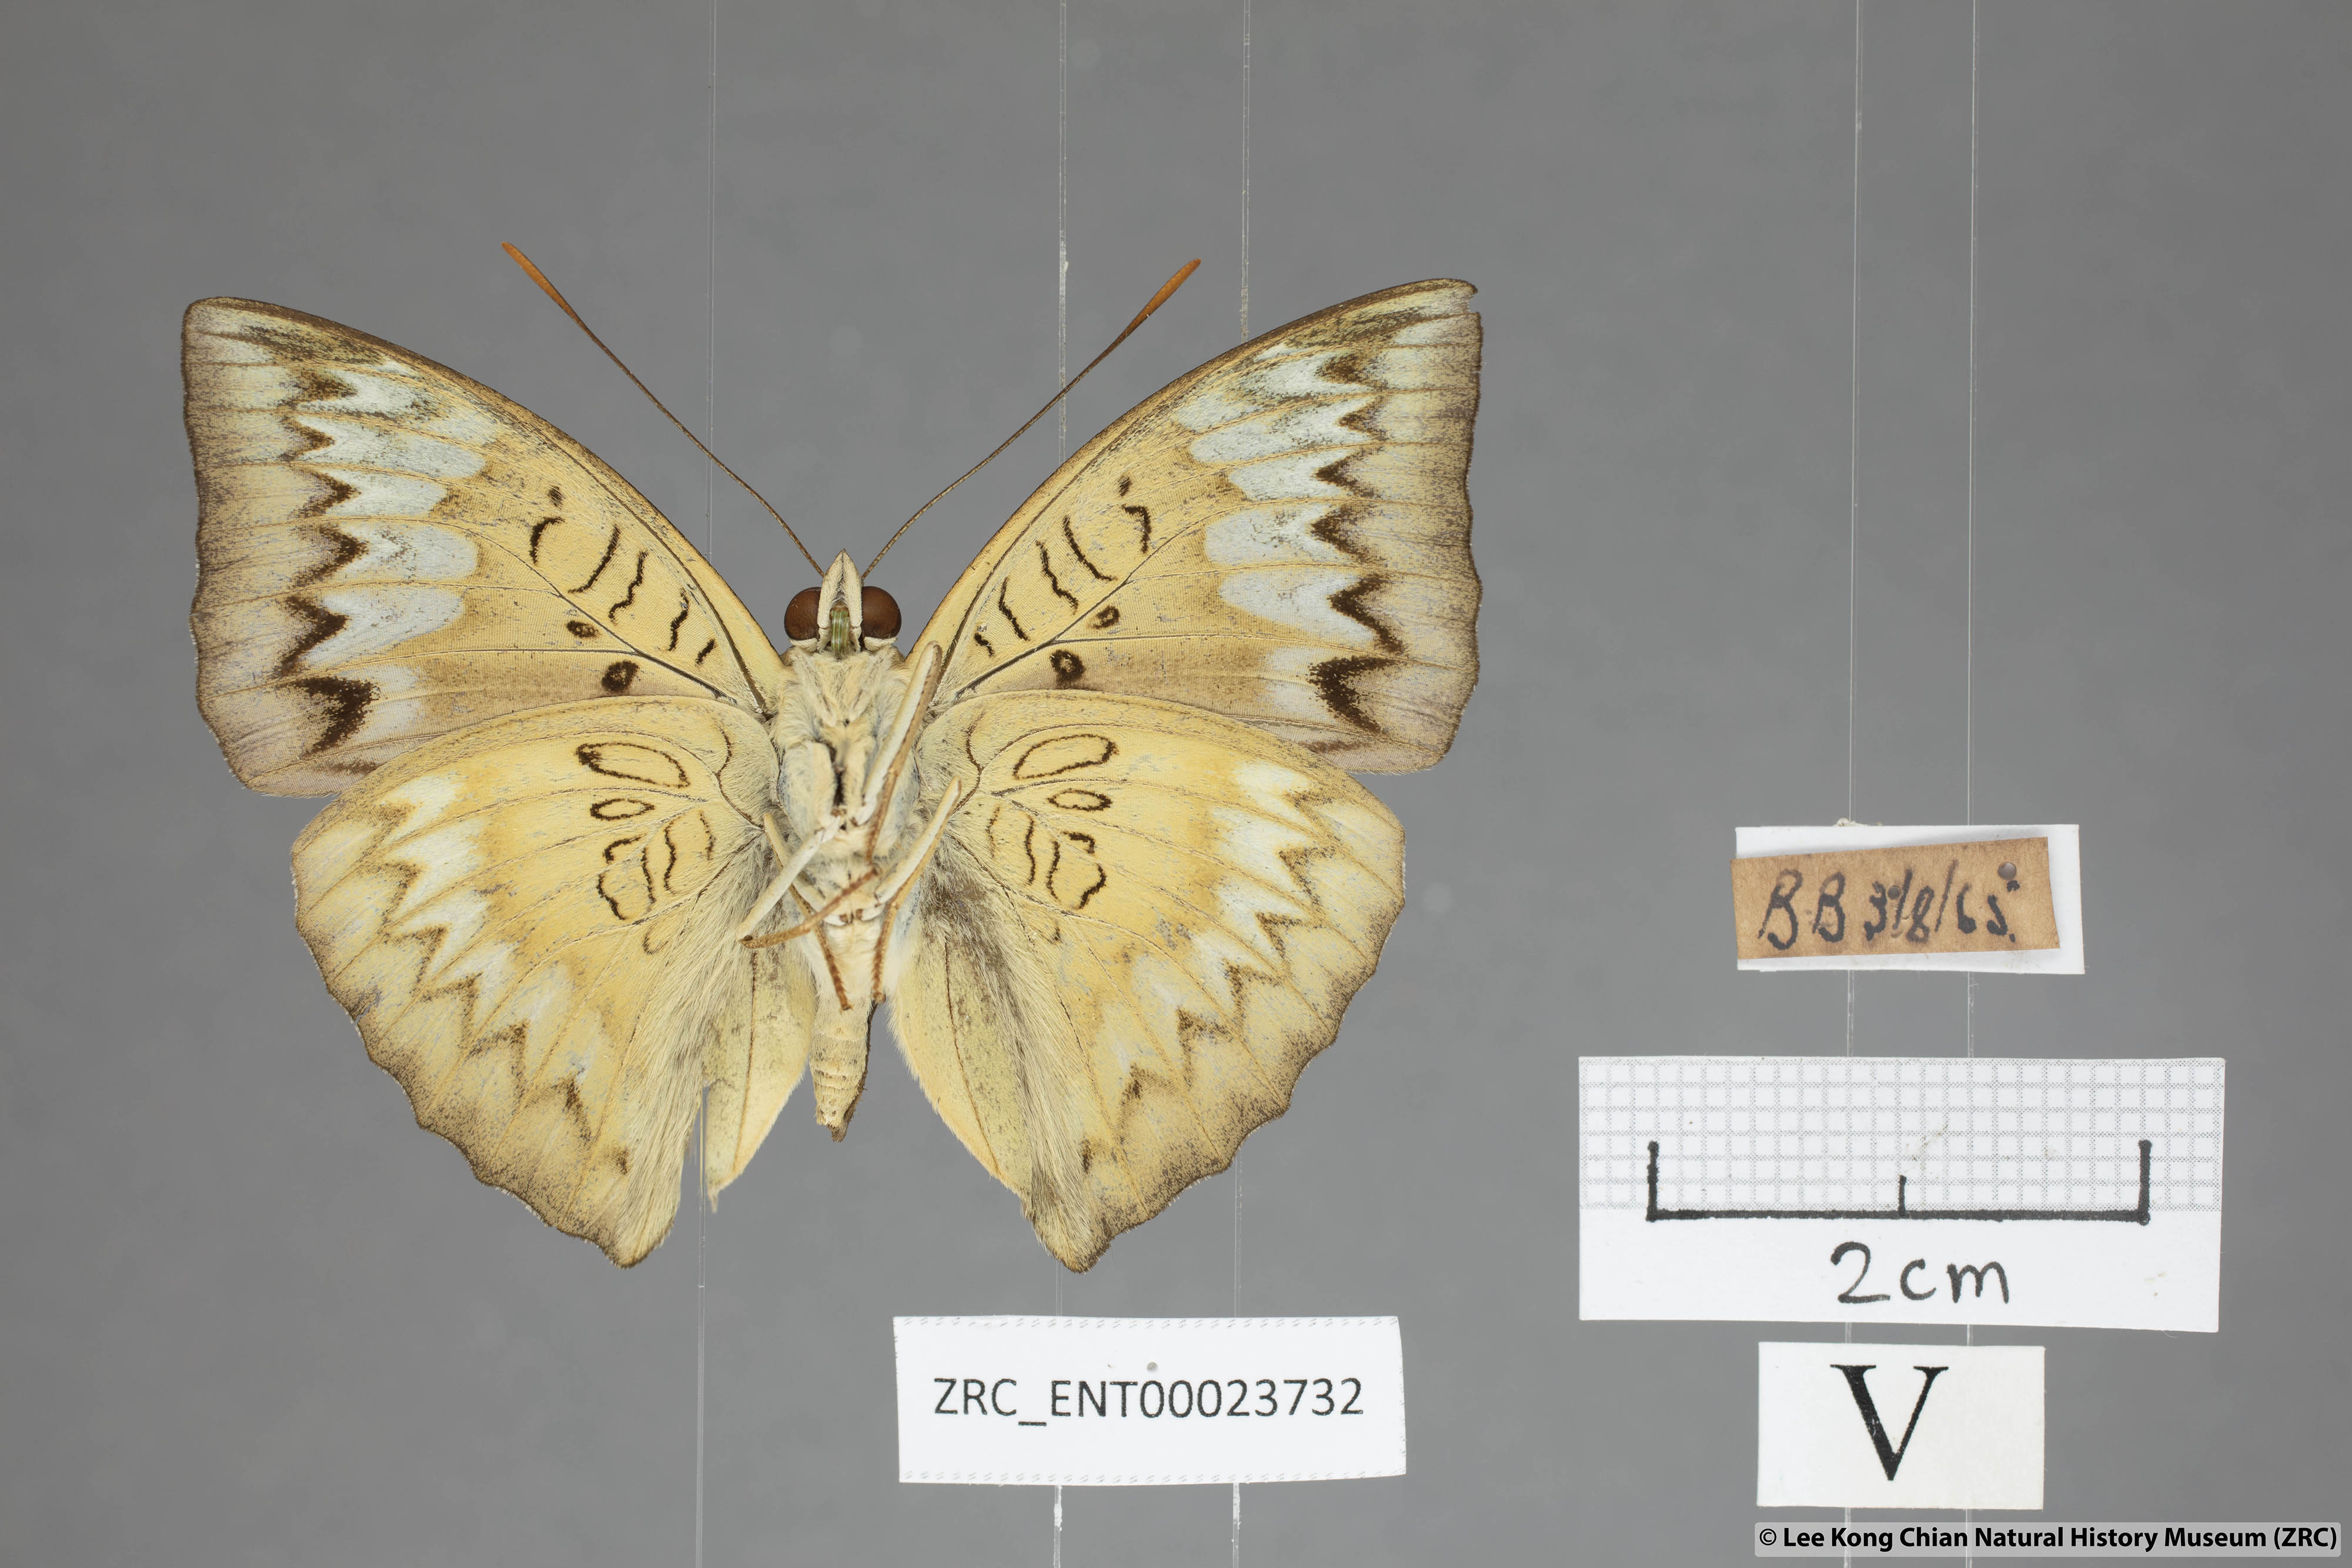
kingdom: Animalia
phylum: Arthropoda
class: Insecta
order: Lepidoptera
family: Nymphalidae
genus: Euthalia
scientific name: Euthalia monina
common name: Powdered baron
